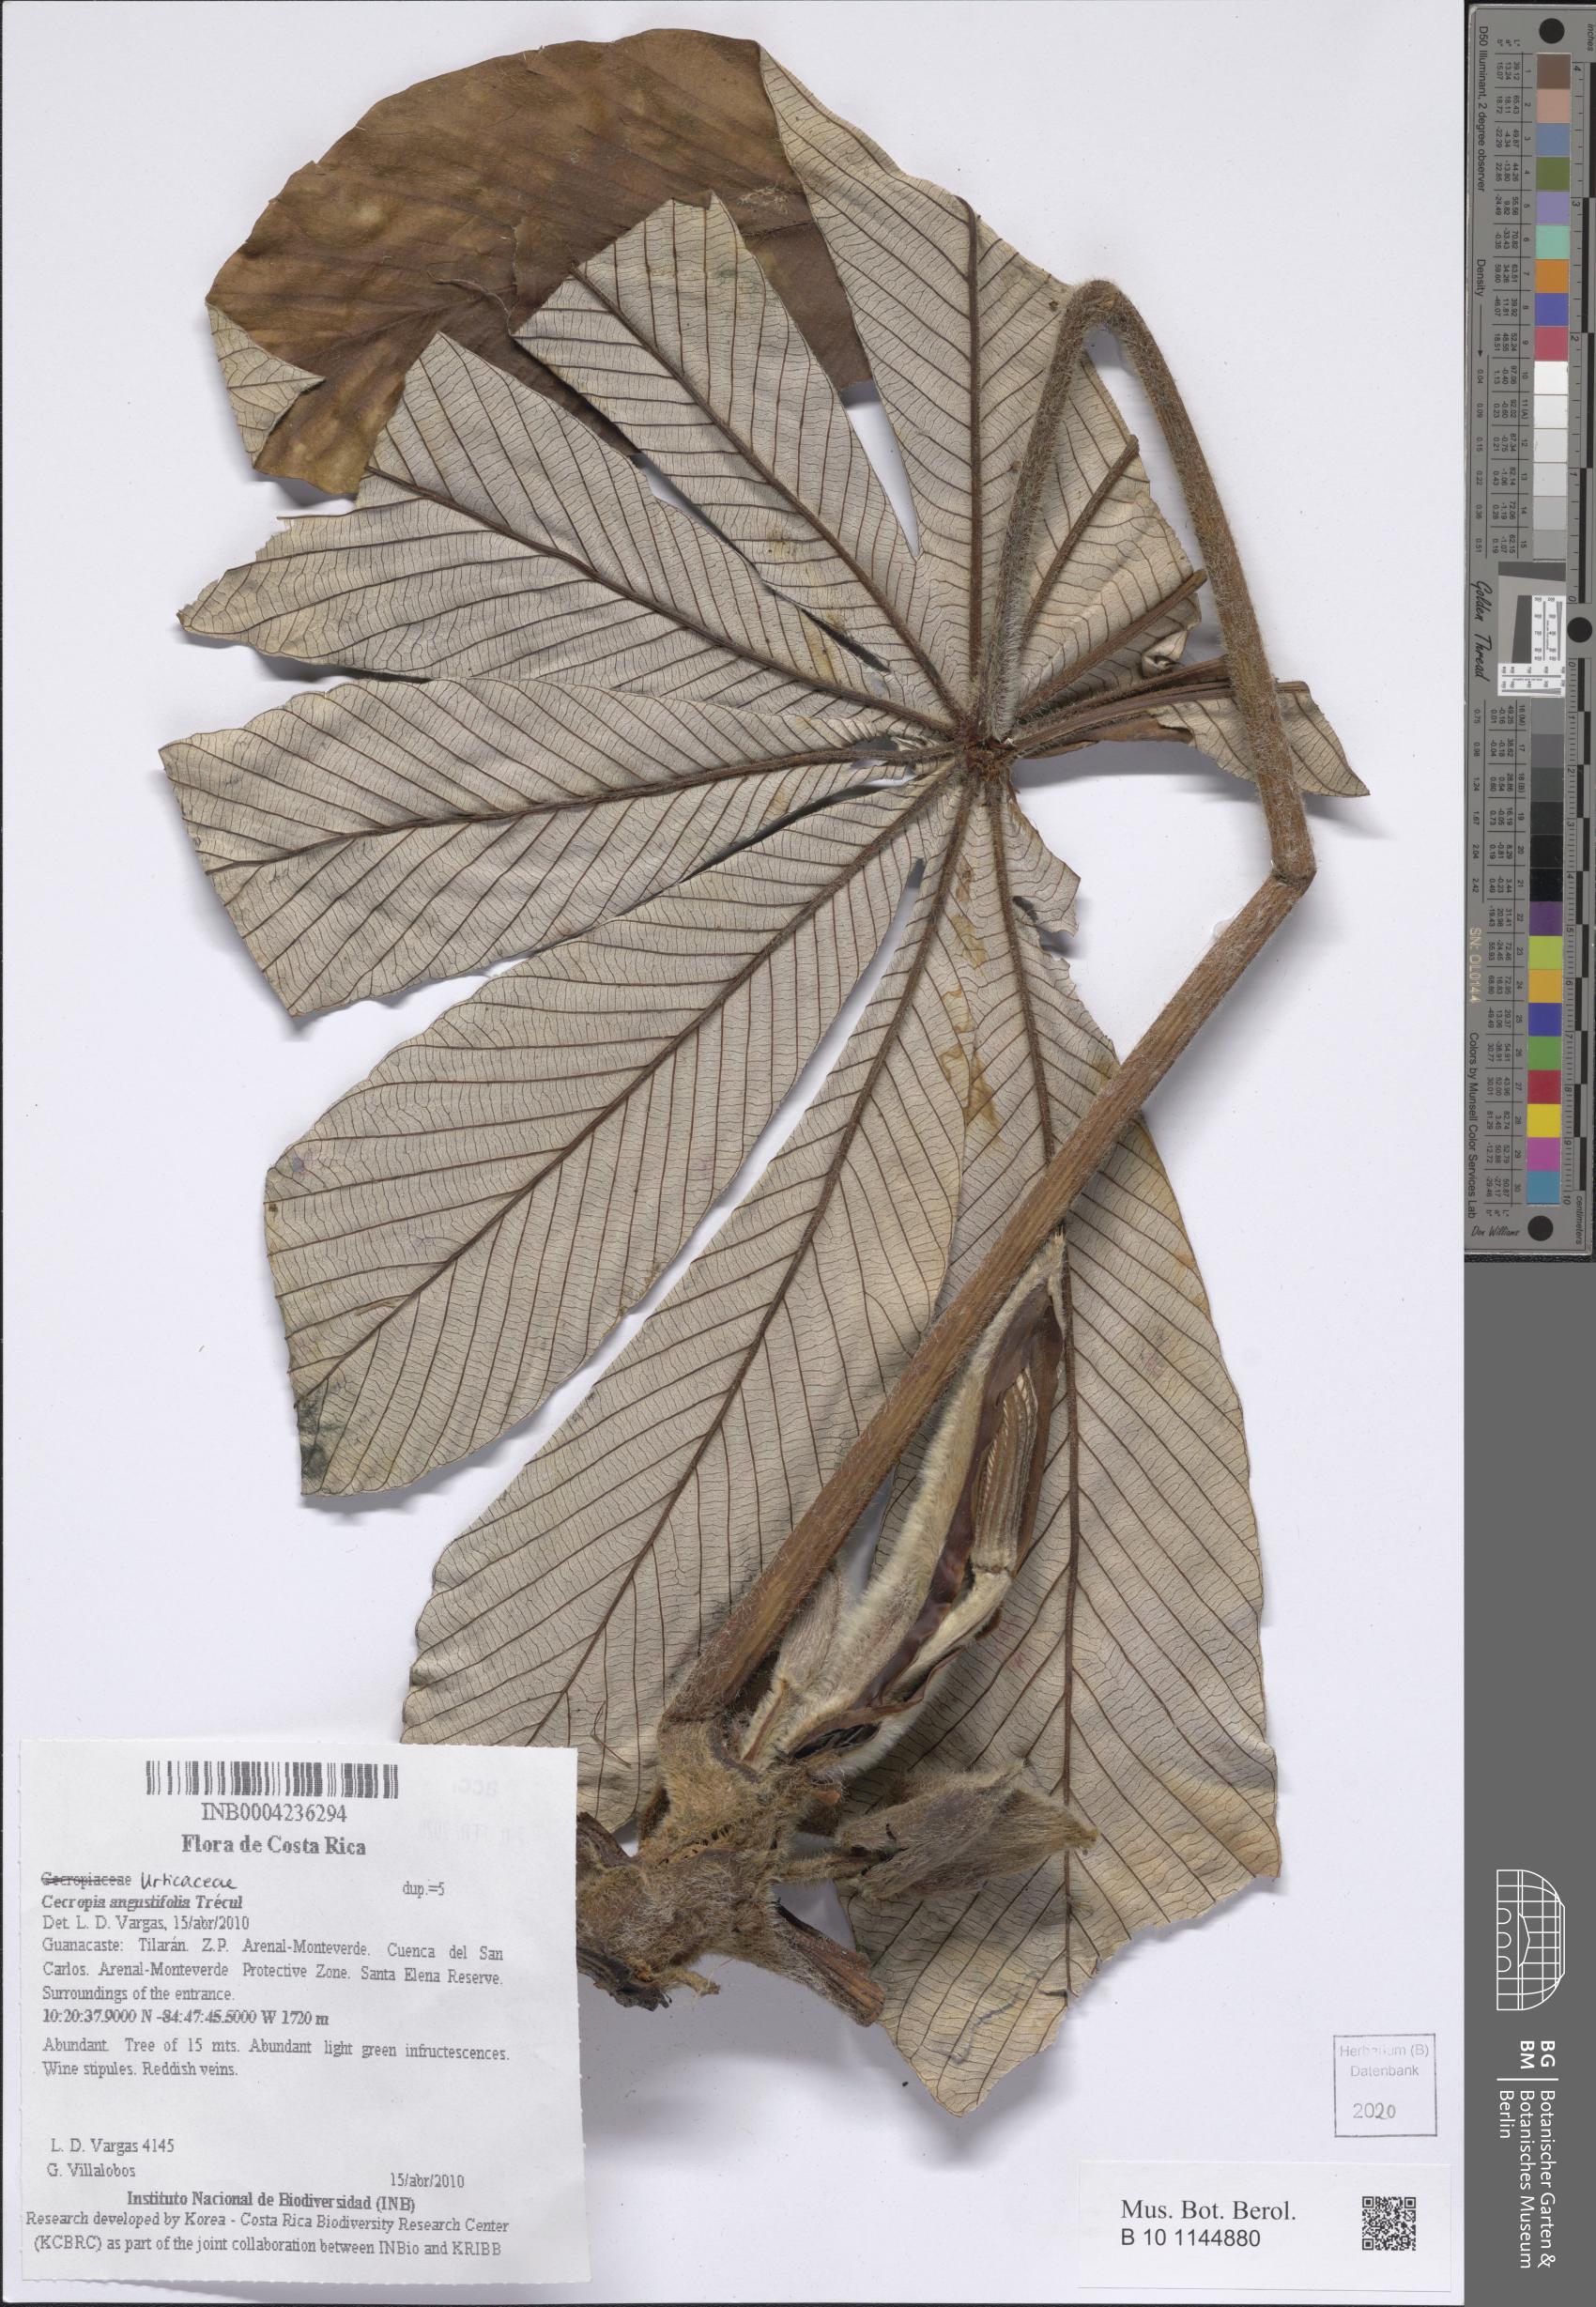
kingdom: Plantae
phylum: Tracheophyta
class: Magnoliopsida
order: Rosales
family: Urticaceae
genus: Cecropia
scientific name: Cecropia angustifolia
